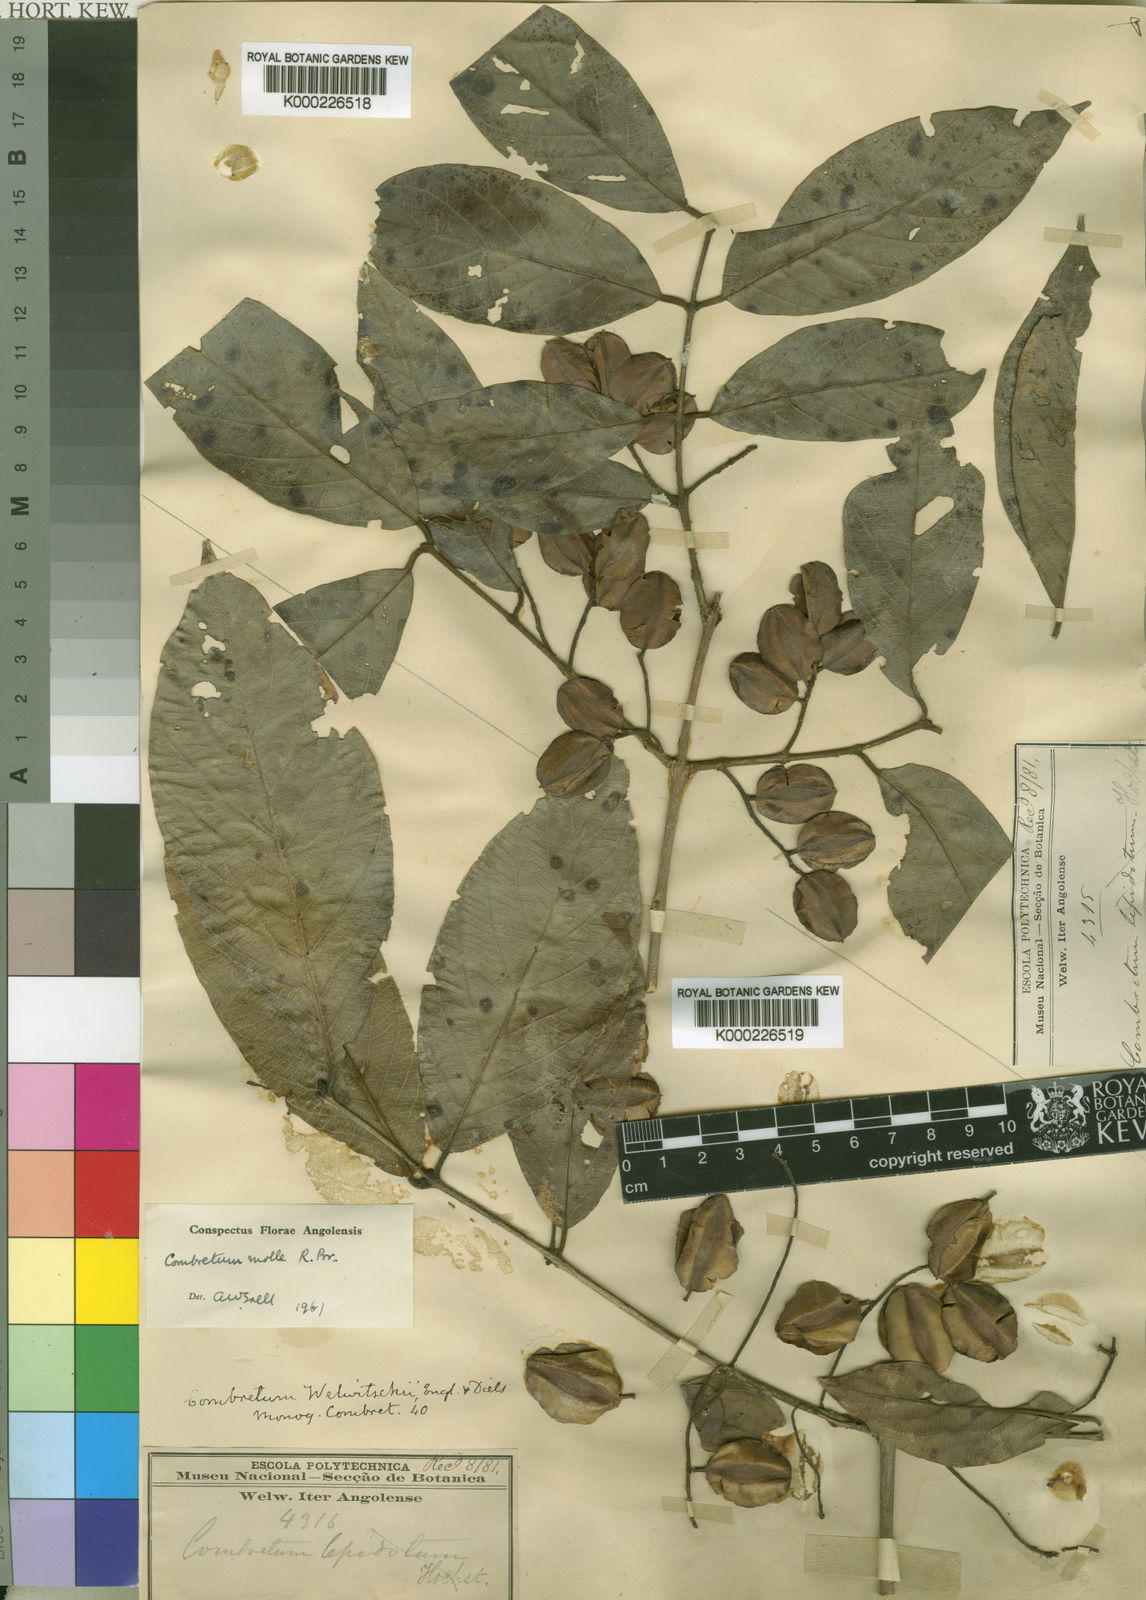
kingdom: Plantae
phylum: Tracheophyta
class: Magnoliopsida
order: Myrtales
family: Combretaceae
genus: Combretum
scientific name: Combretum molle
